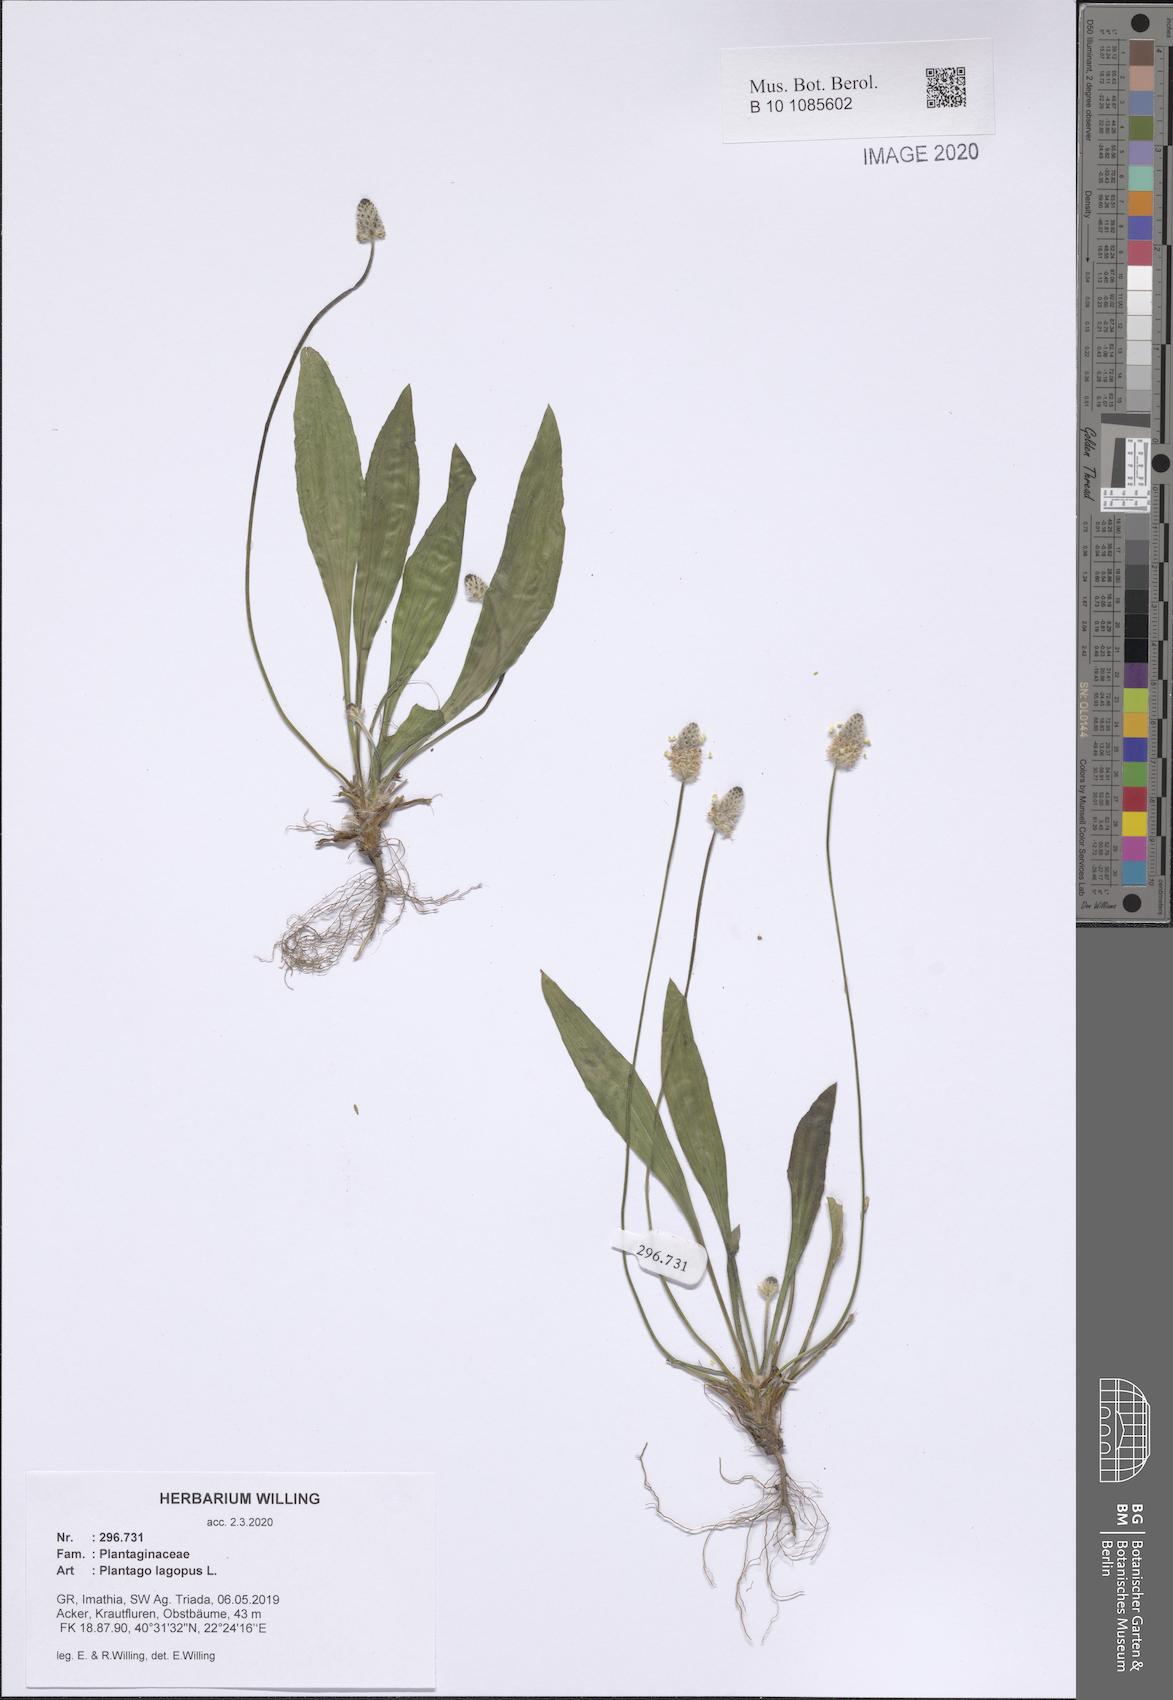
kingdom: Plantae
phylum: Tracheophyta
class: Magnoliopsida
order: Lamiales
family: Plantaginaceae
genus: Plantago
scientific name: Plantago lagopus
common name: Hare-foot plantain
